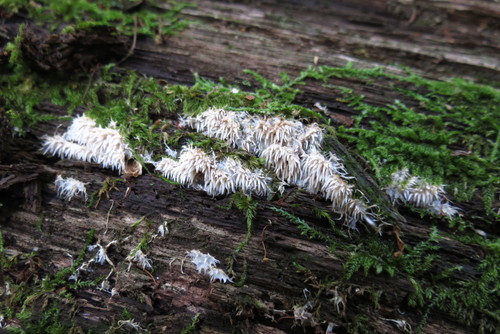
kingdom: Fungi
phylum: Basidiomycota
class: Agaricomycetes
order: Gomphales
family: Lentariaceae
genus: Hydnocristella
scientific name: Hydnocristella himantia
